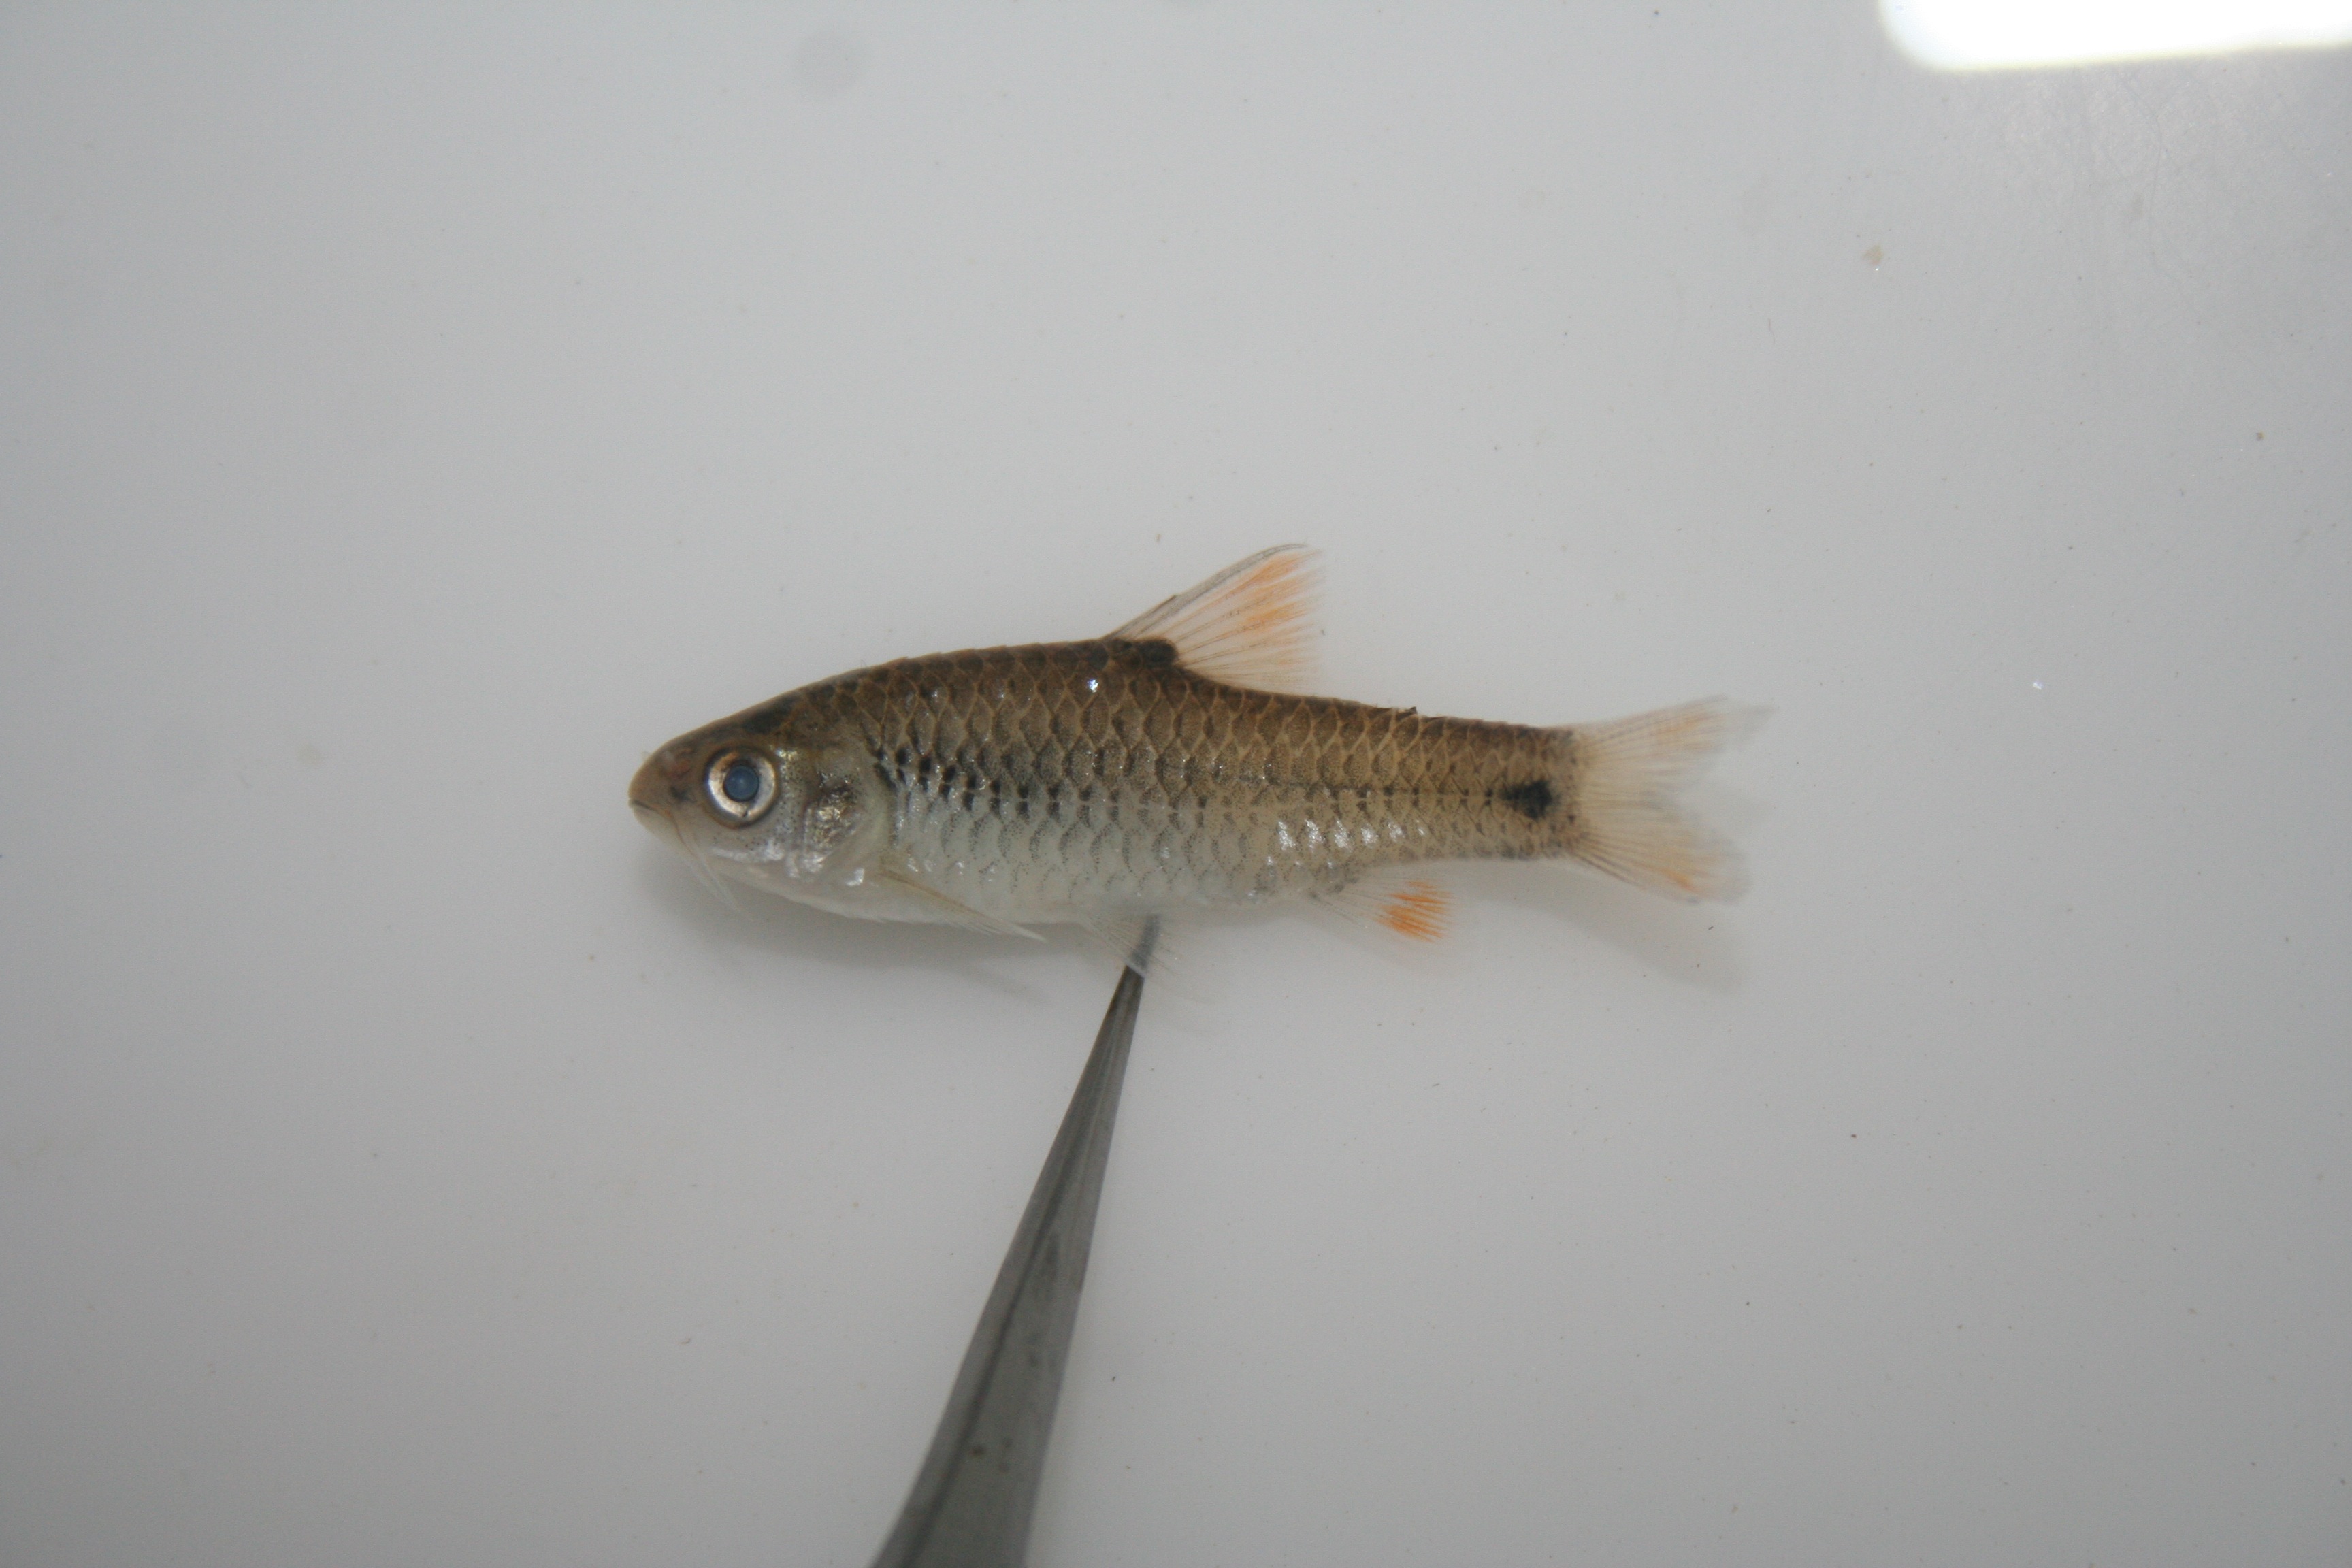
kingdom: Animalia
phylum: Chordata
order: Cypriniformes
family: Cyprinidae
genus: Barbus
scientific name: Barbus
